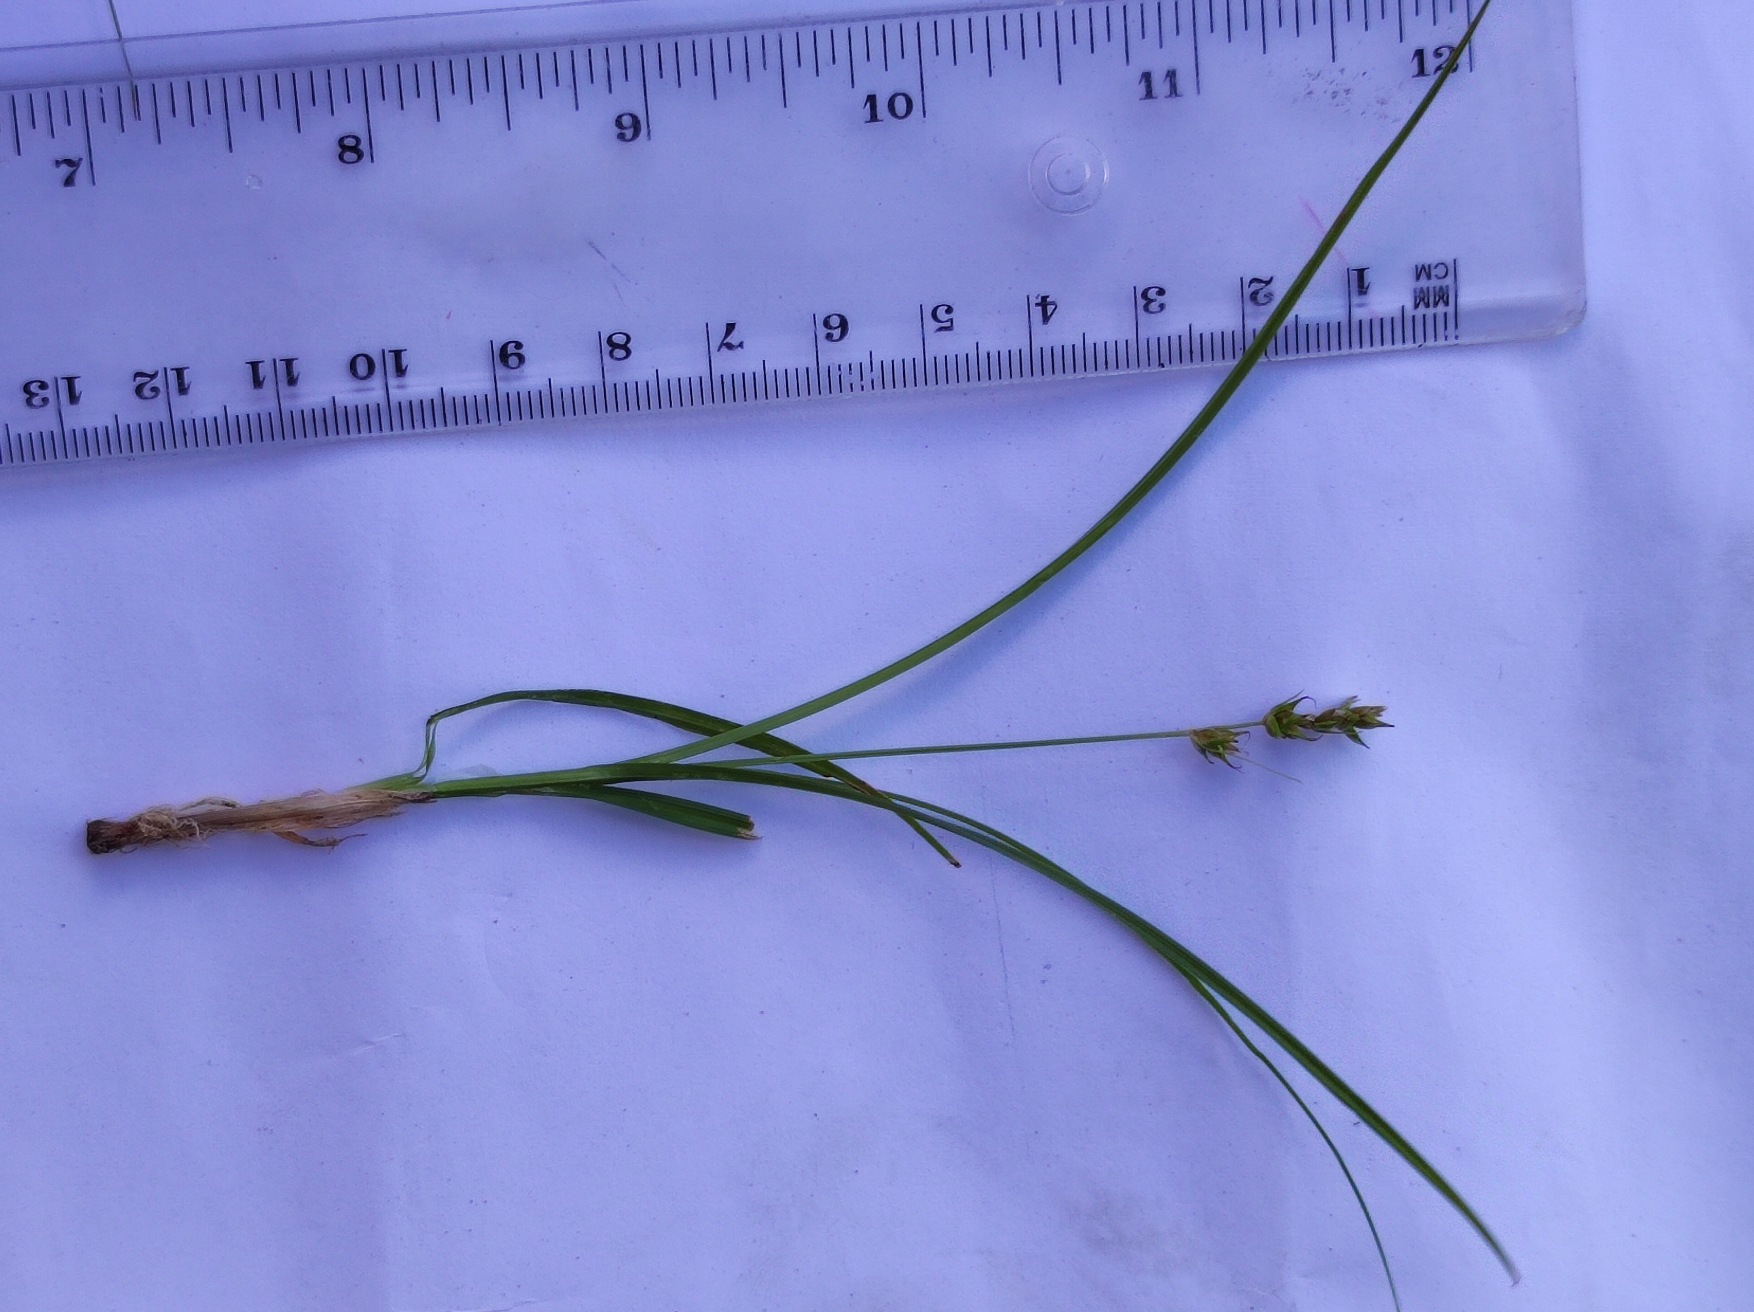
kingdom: Plantae
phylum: Tracheophyta
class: Liliopsida
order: Poales
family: Cyperaceae
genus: Carex
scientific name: Carex spicata
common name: Spidskapslet star
